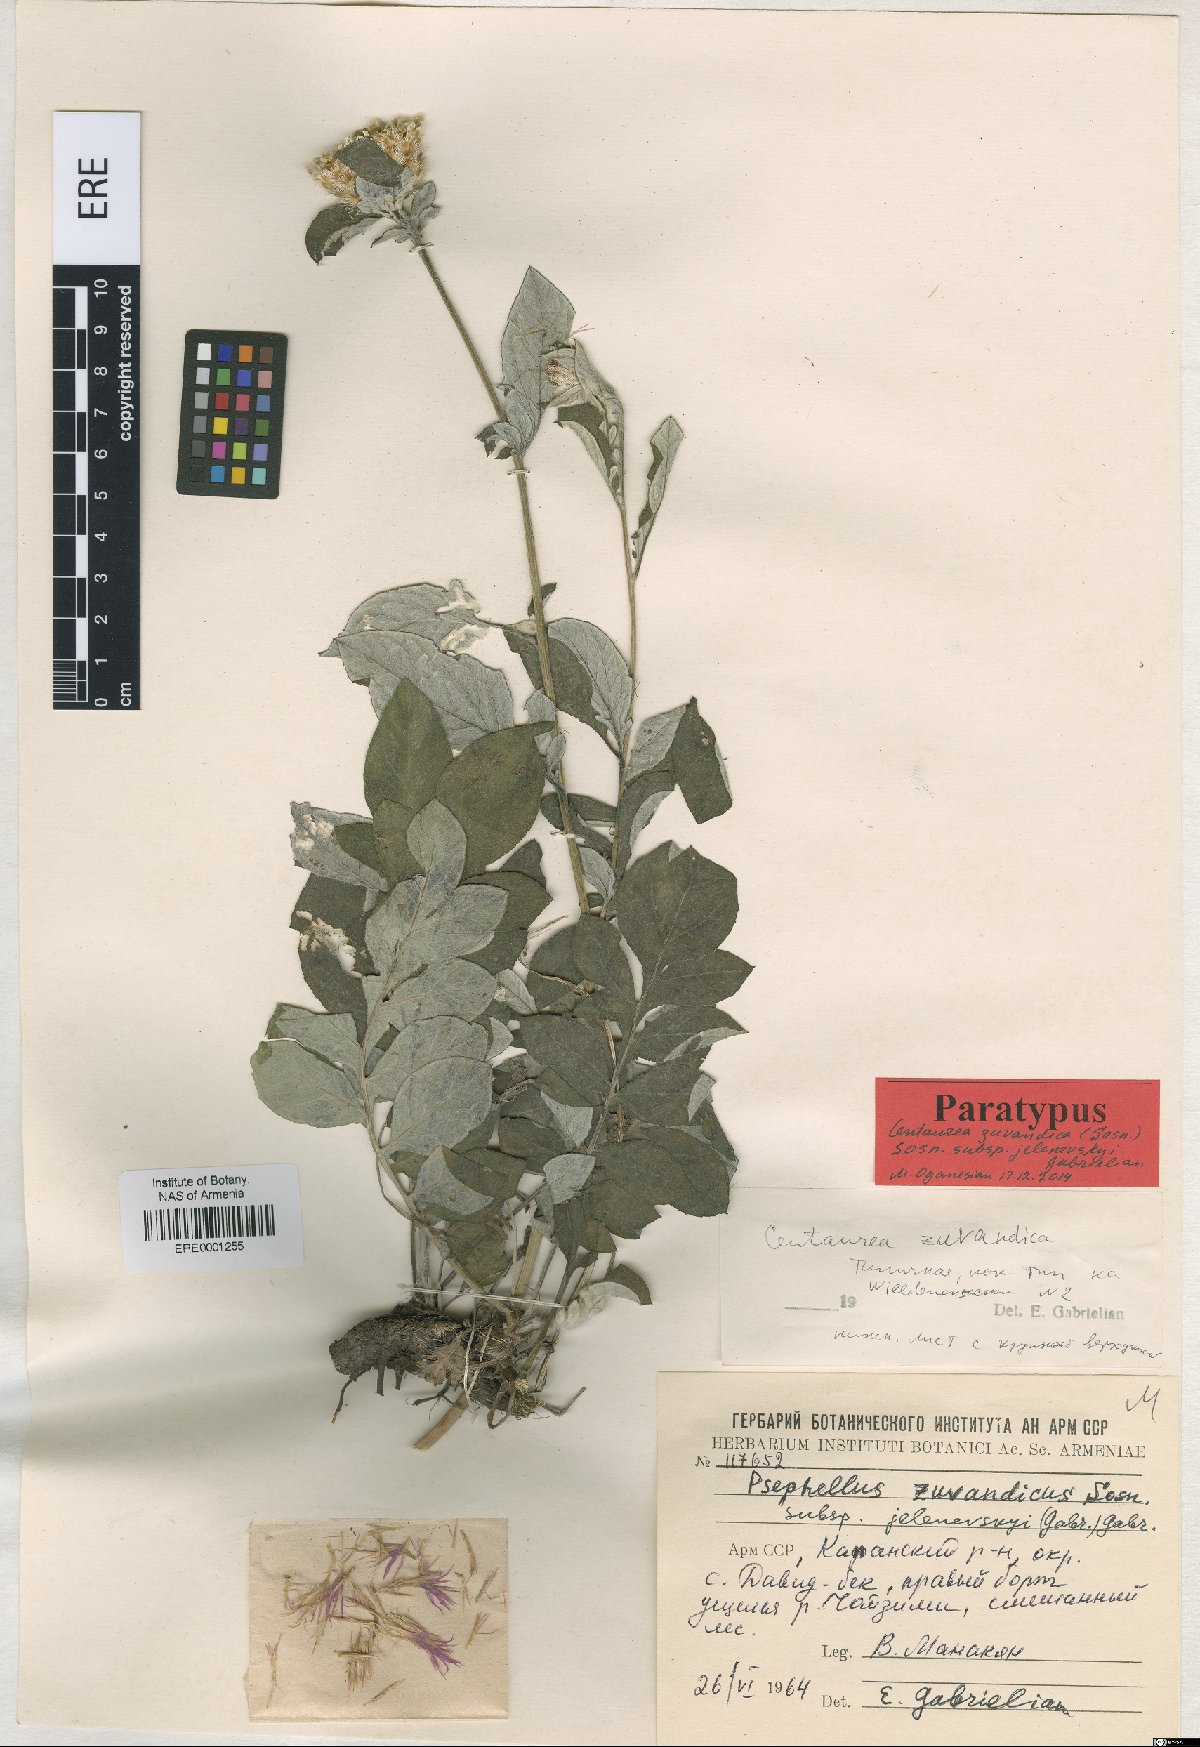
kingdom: Plantae
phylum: Tracheophyta
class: Magnoliopsida
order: Asterales
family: Asteraceae
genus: Psephellus
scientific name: Psephellus zuvandicus
